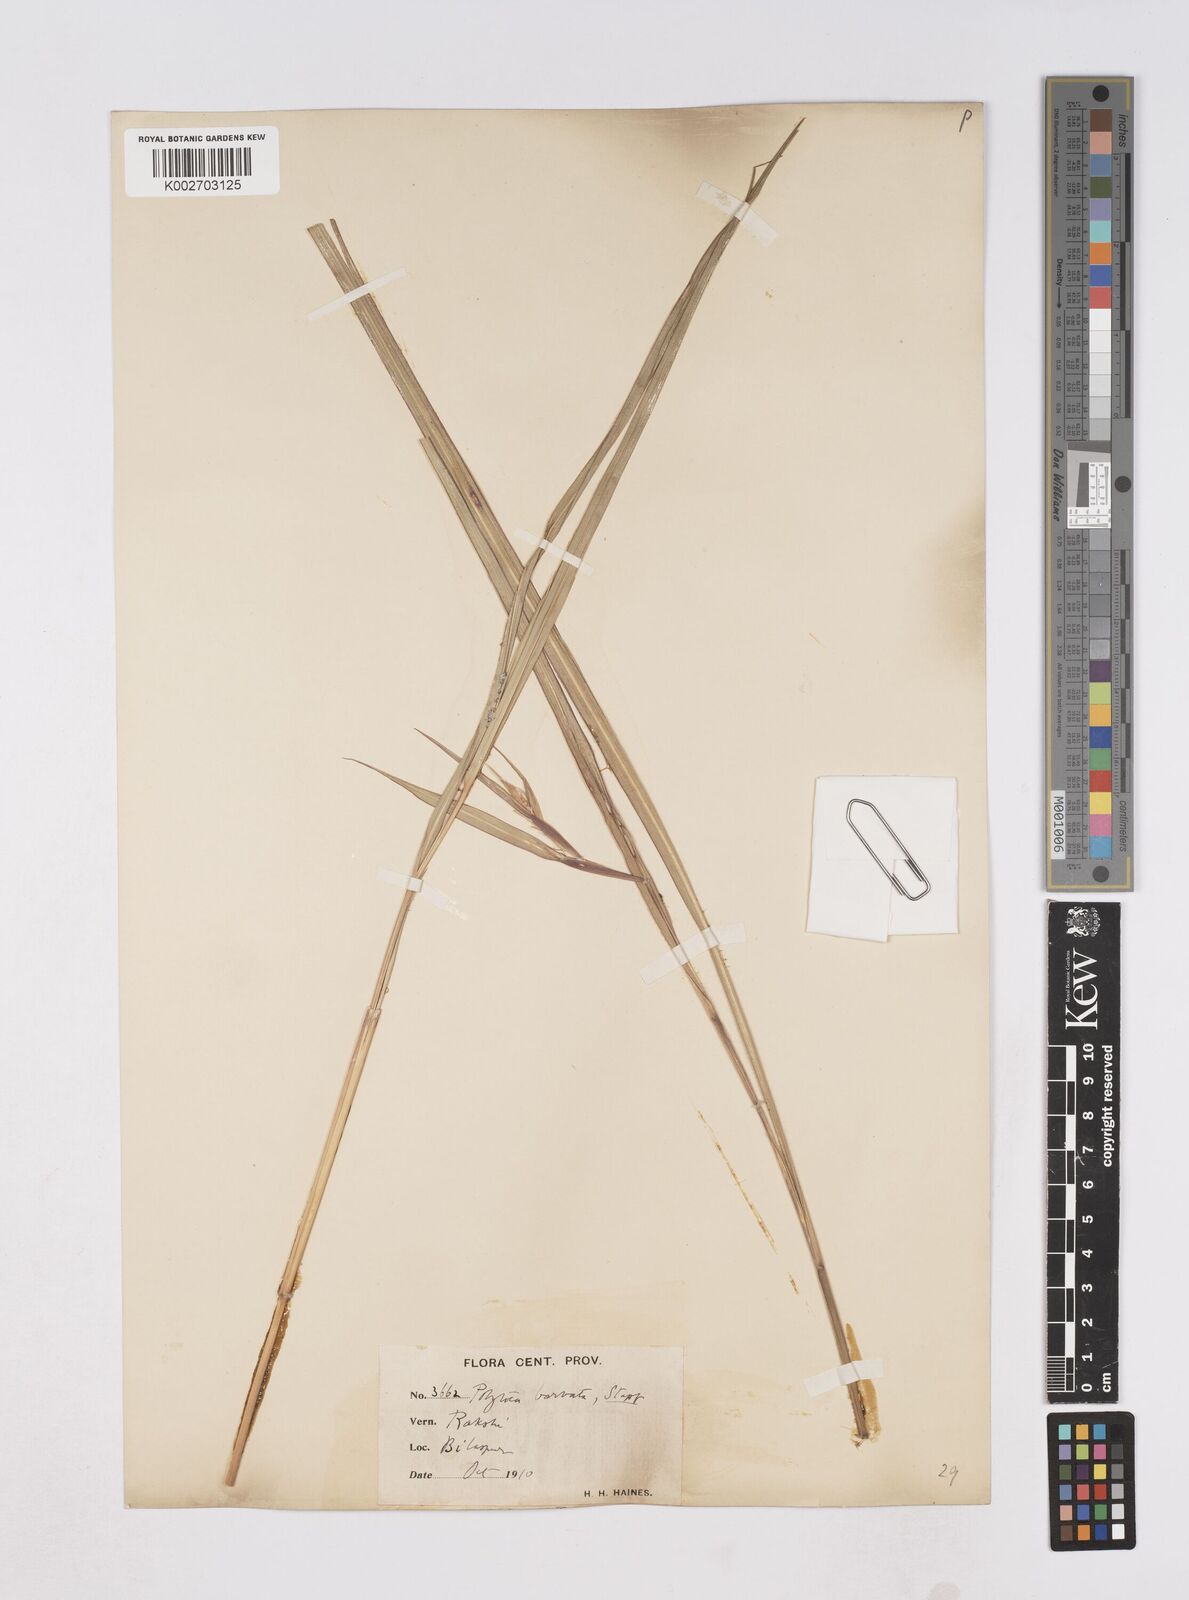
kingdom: Plantae
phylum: Tracheophyta
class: Liliopsida
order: Poales
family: Poaceae
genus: Polytoca
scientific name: Polytoca digitata
